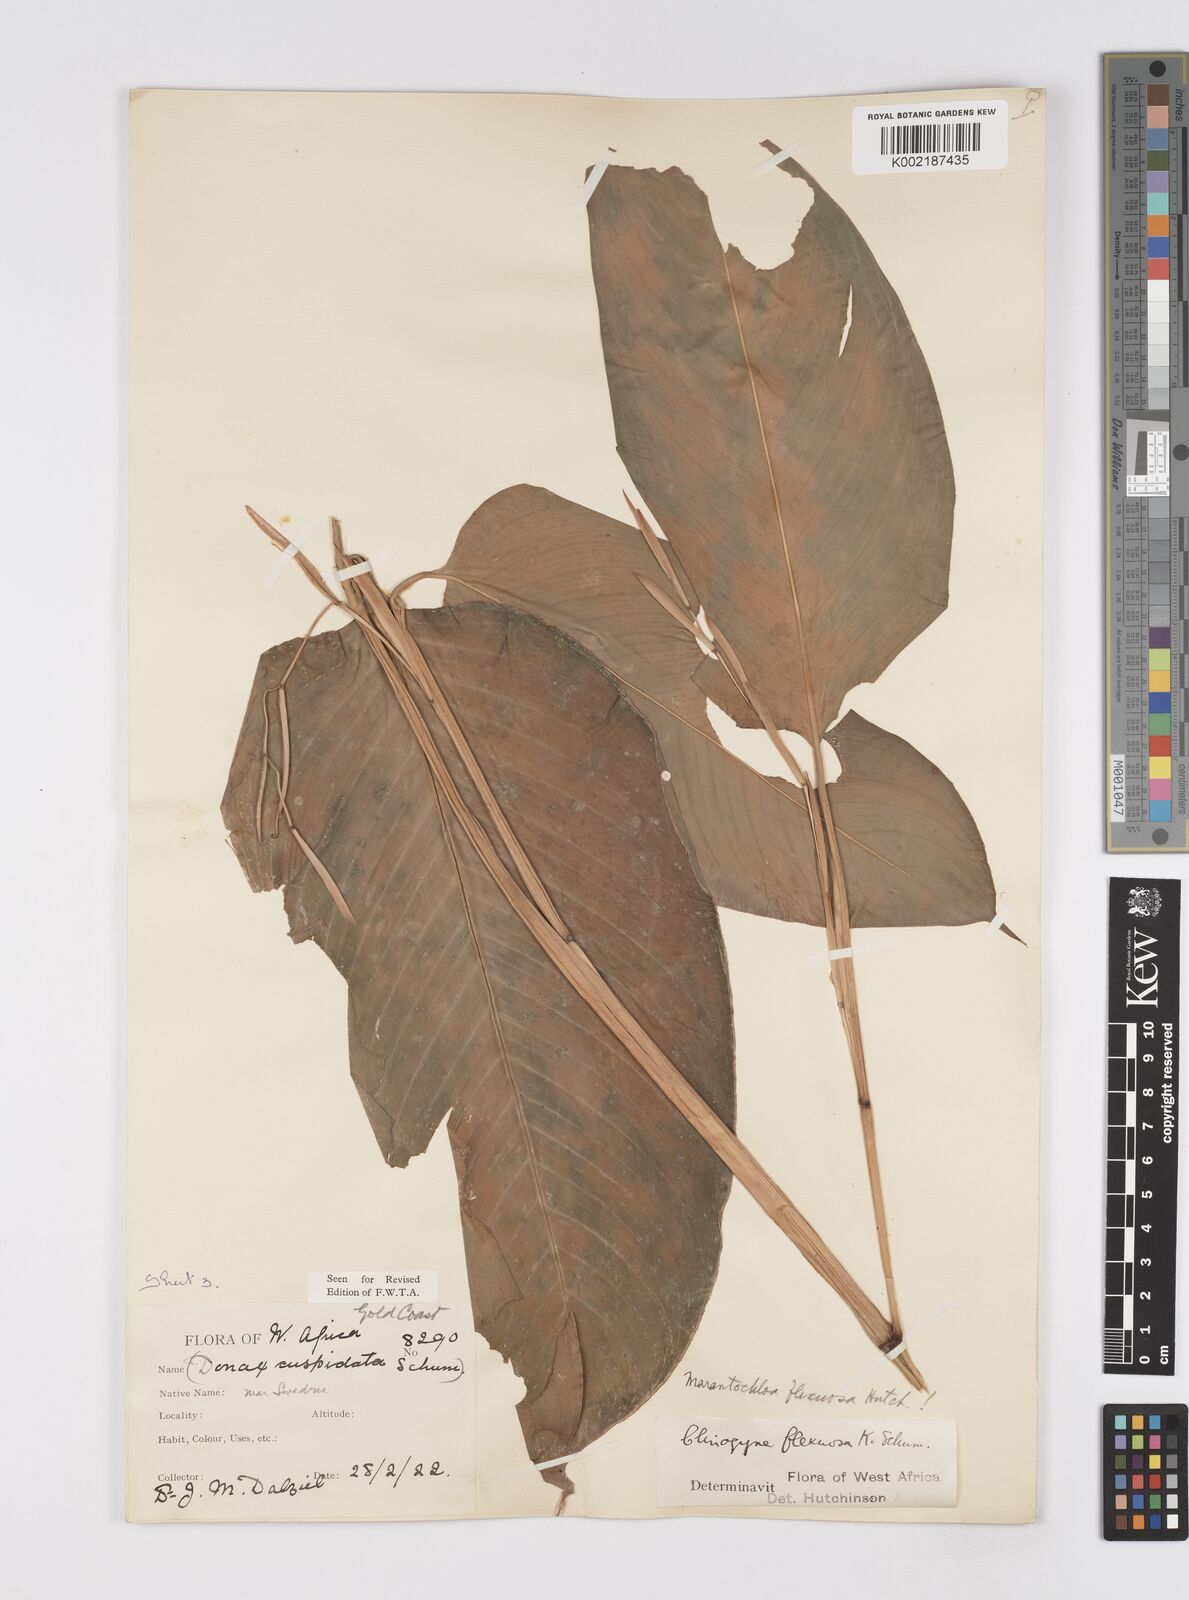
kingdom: Plantae
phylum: Tracheophyta
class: Liliopsida
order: Zingiberales
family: Marantaceae
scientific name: Marantaceae
